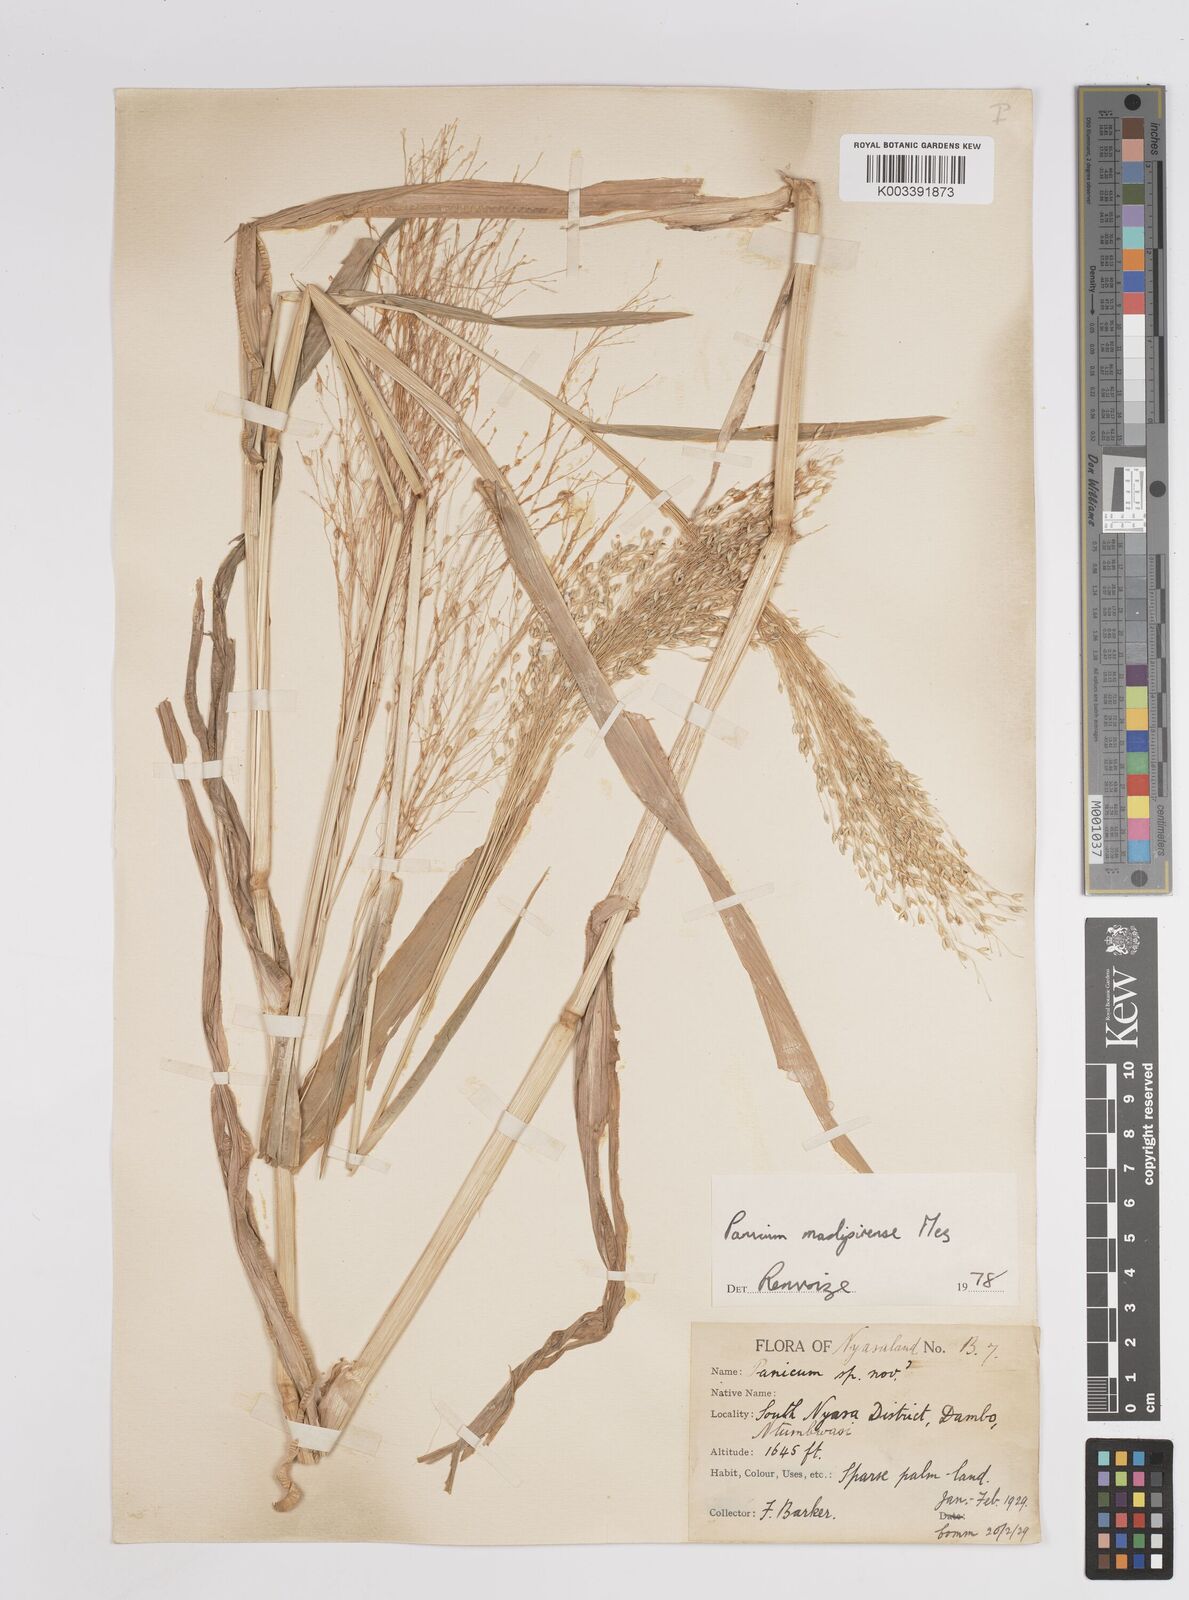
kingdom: Plantae
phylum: Tracheophyta
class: Liliopsida
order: Poales
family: Poaceae
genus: Panicum
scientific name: Panicum madipirense
